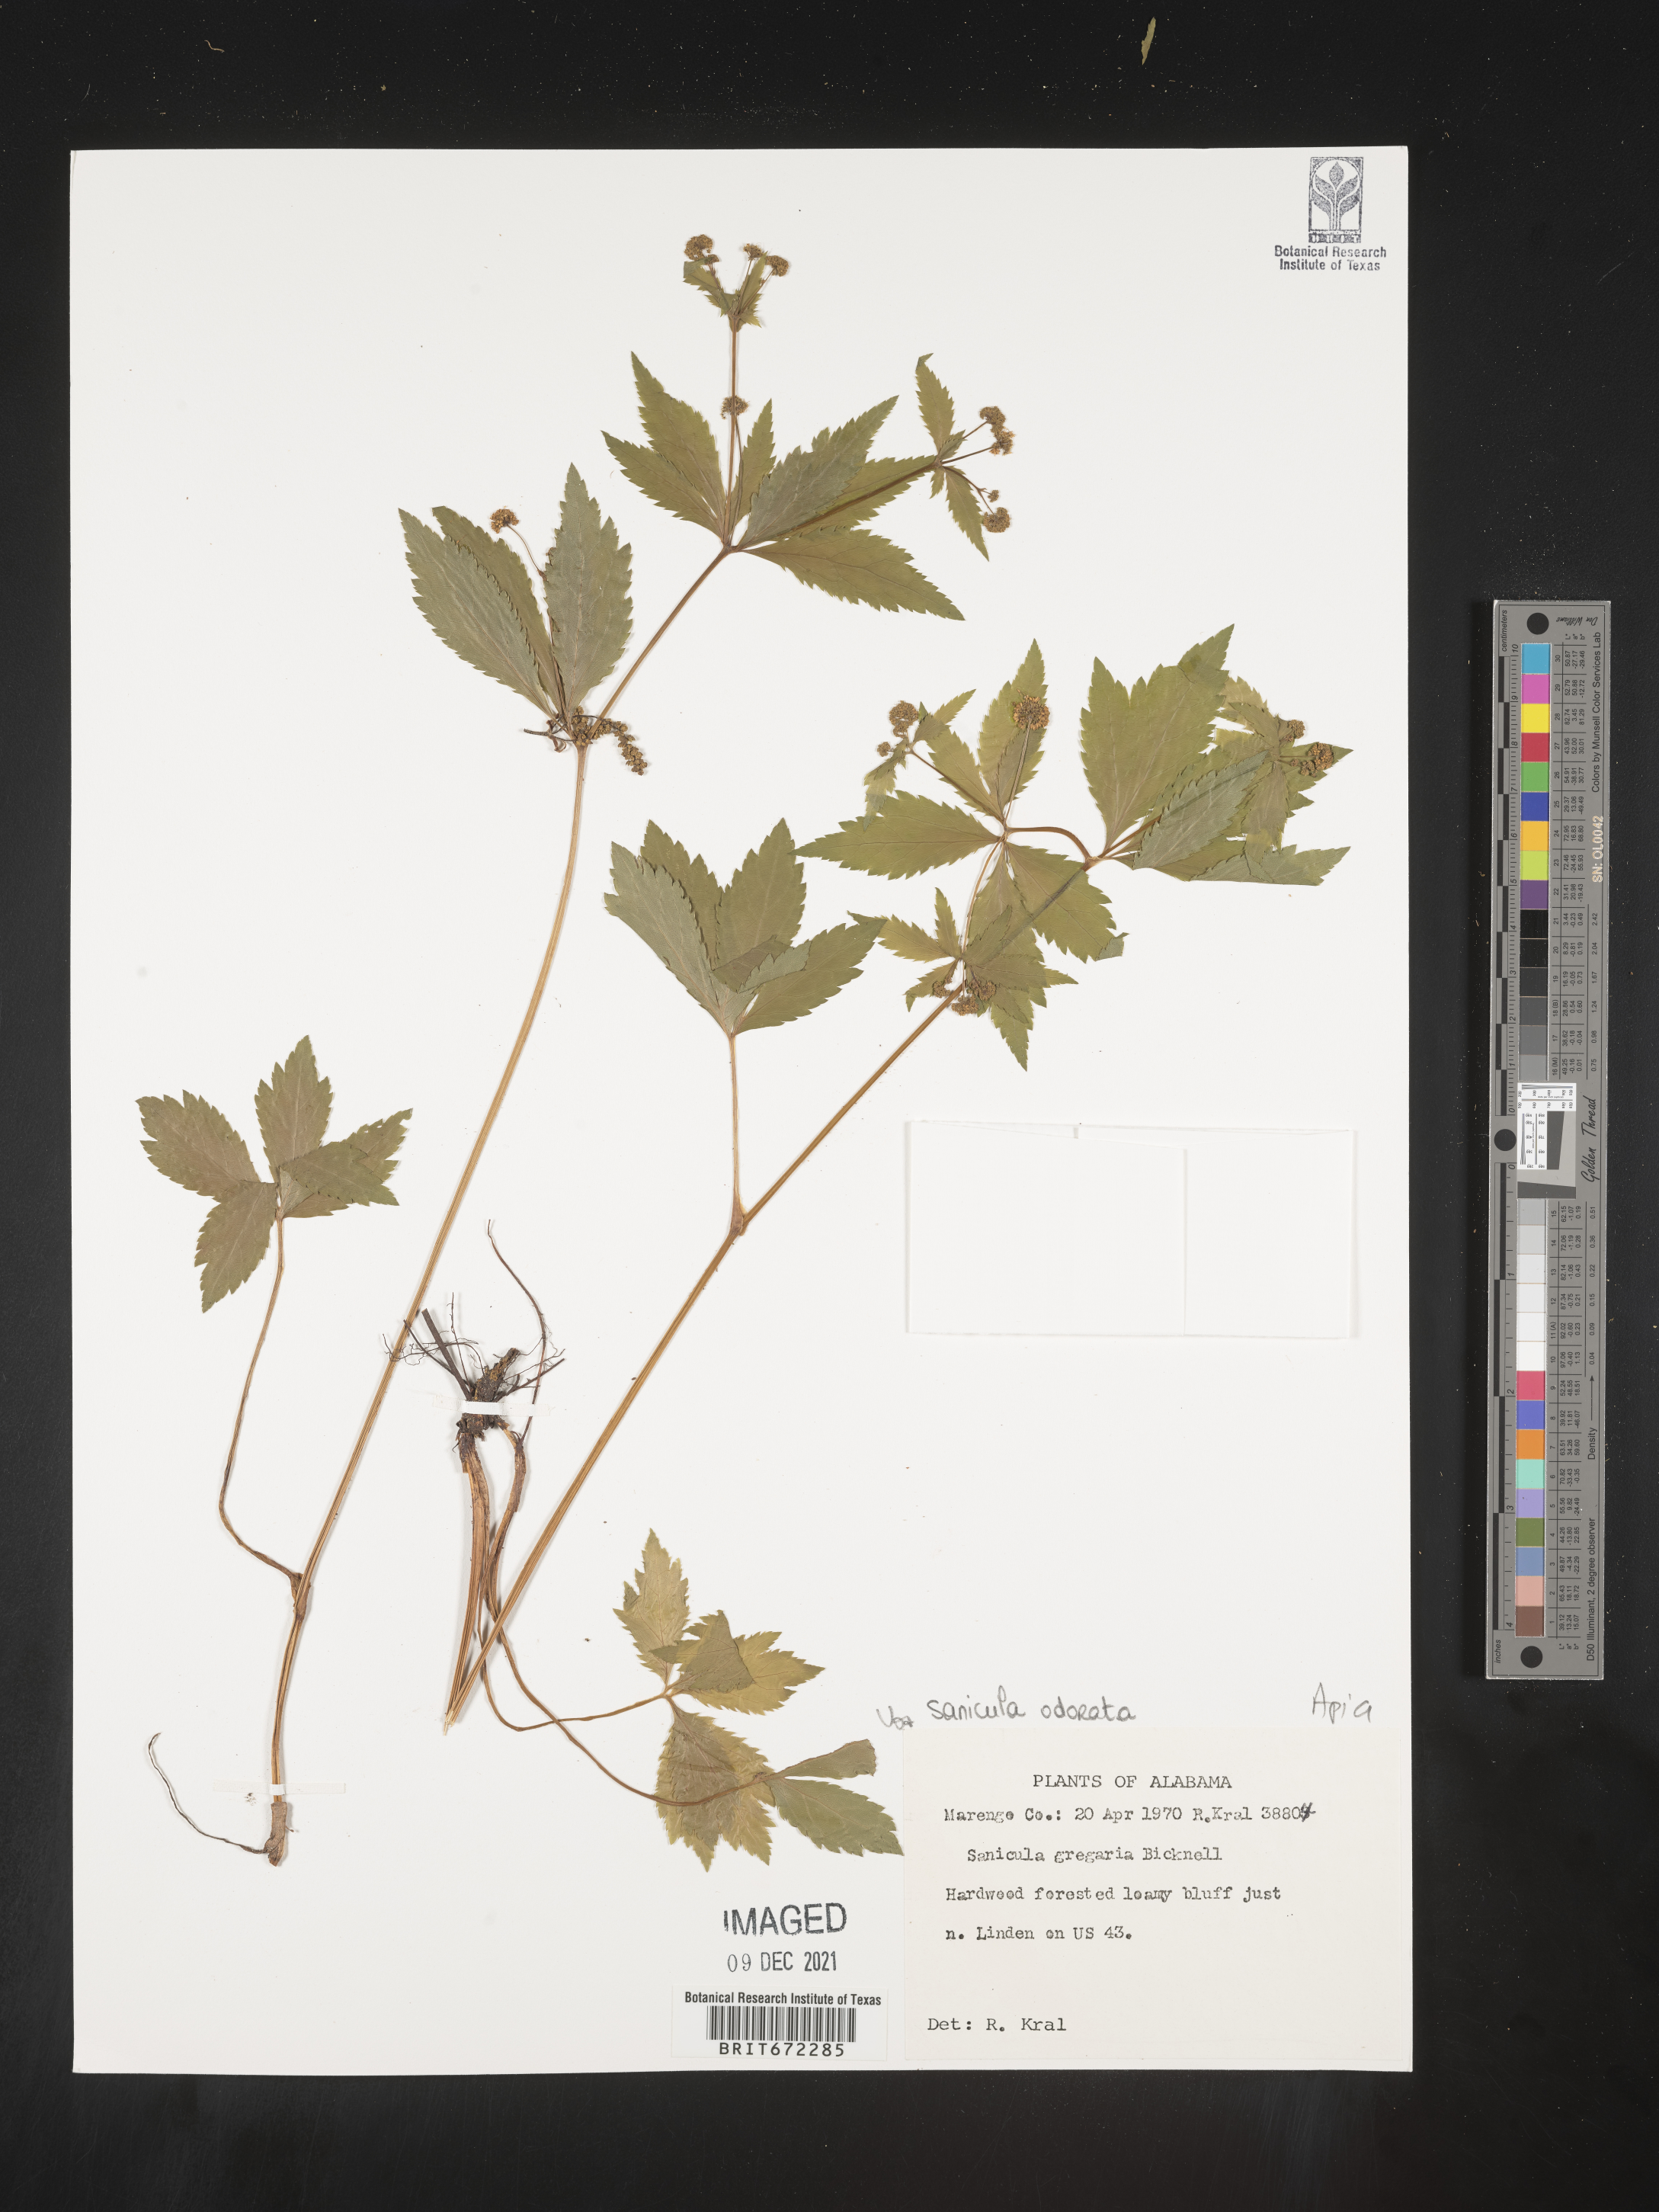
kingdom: Plantae
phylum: Tracheophyta
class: Magnoliopsida
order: Apiales
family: Apiaceae
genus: Sanicula
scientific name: Sanicula
